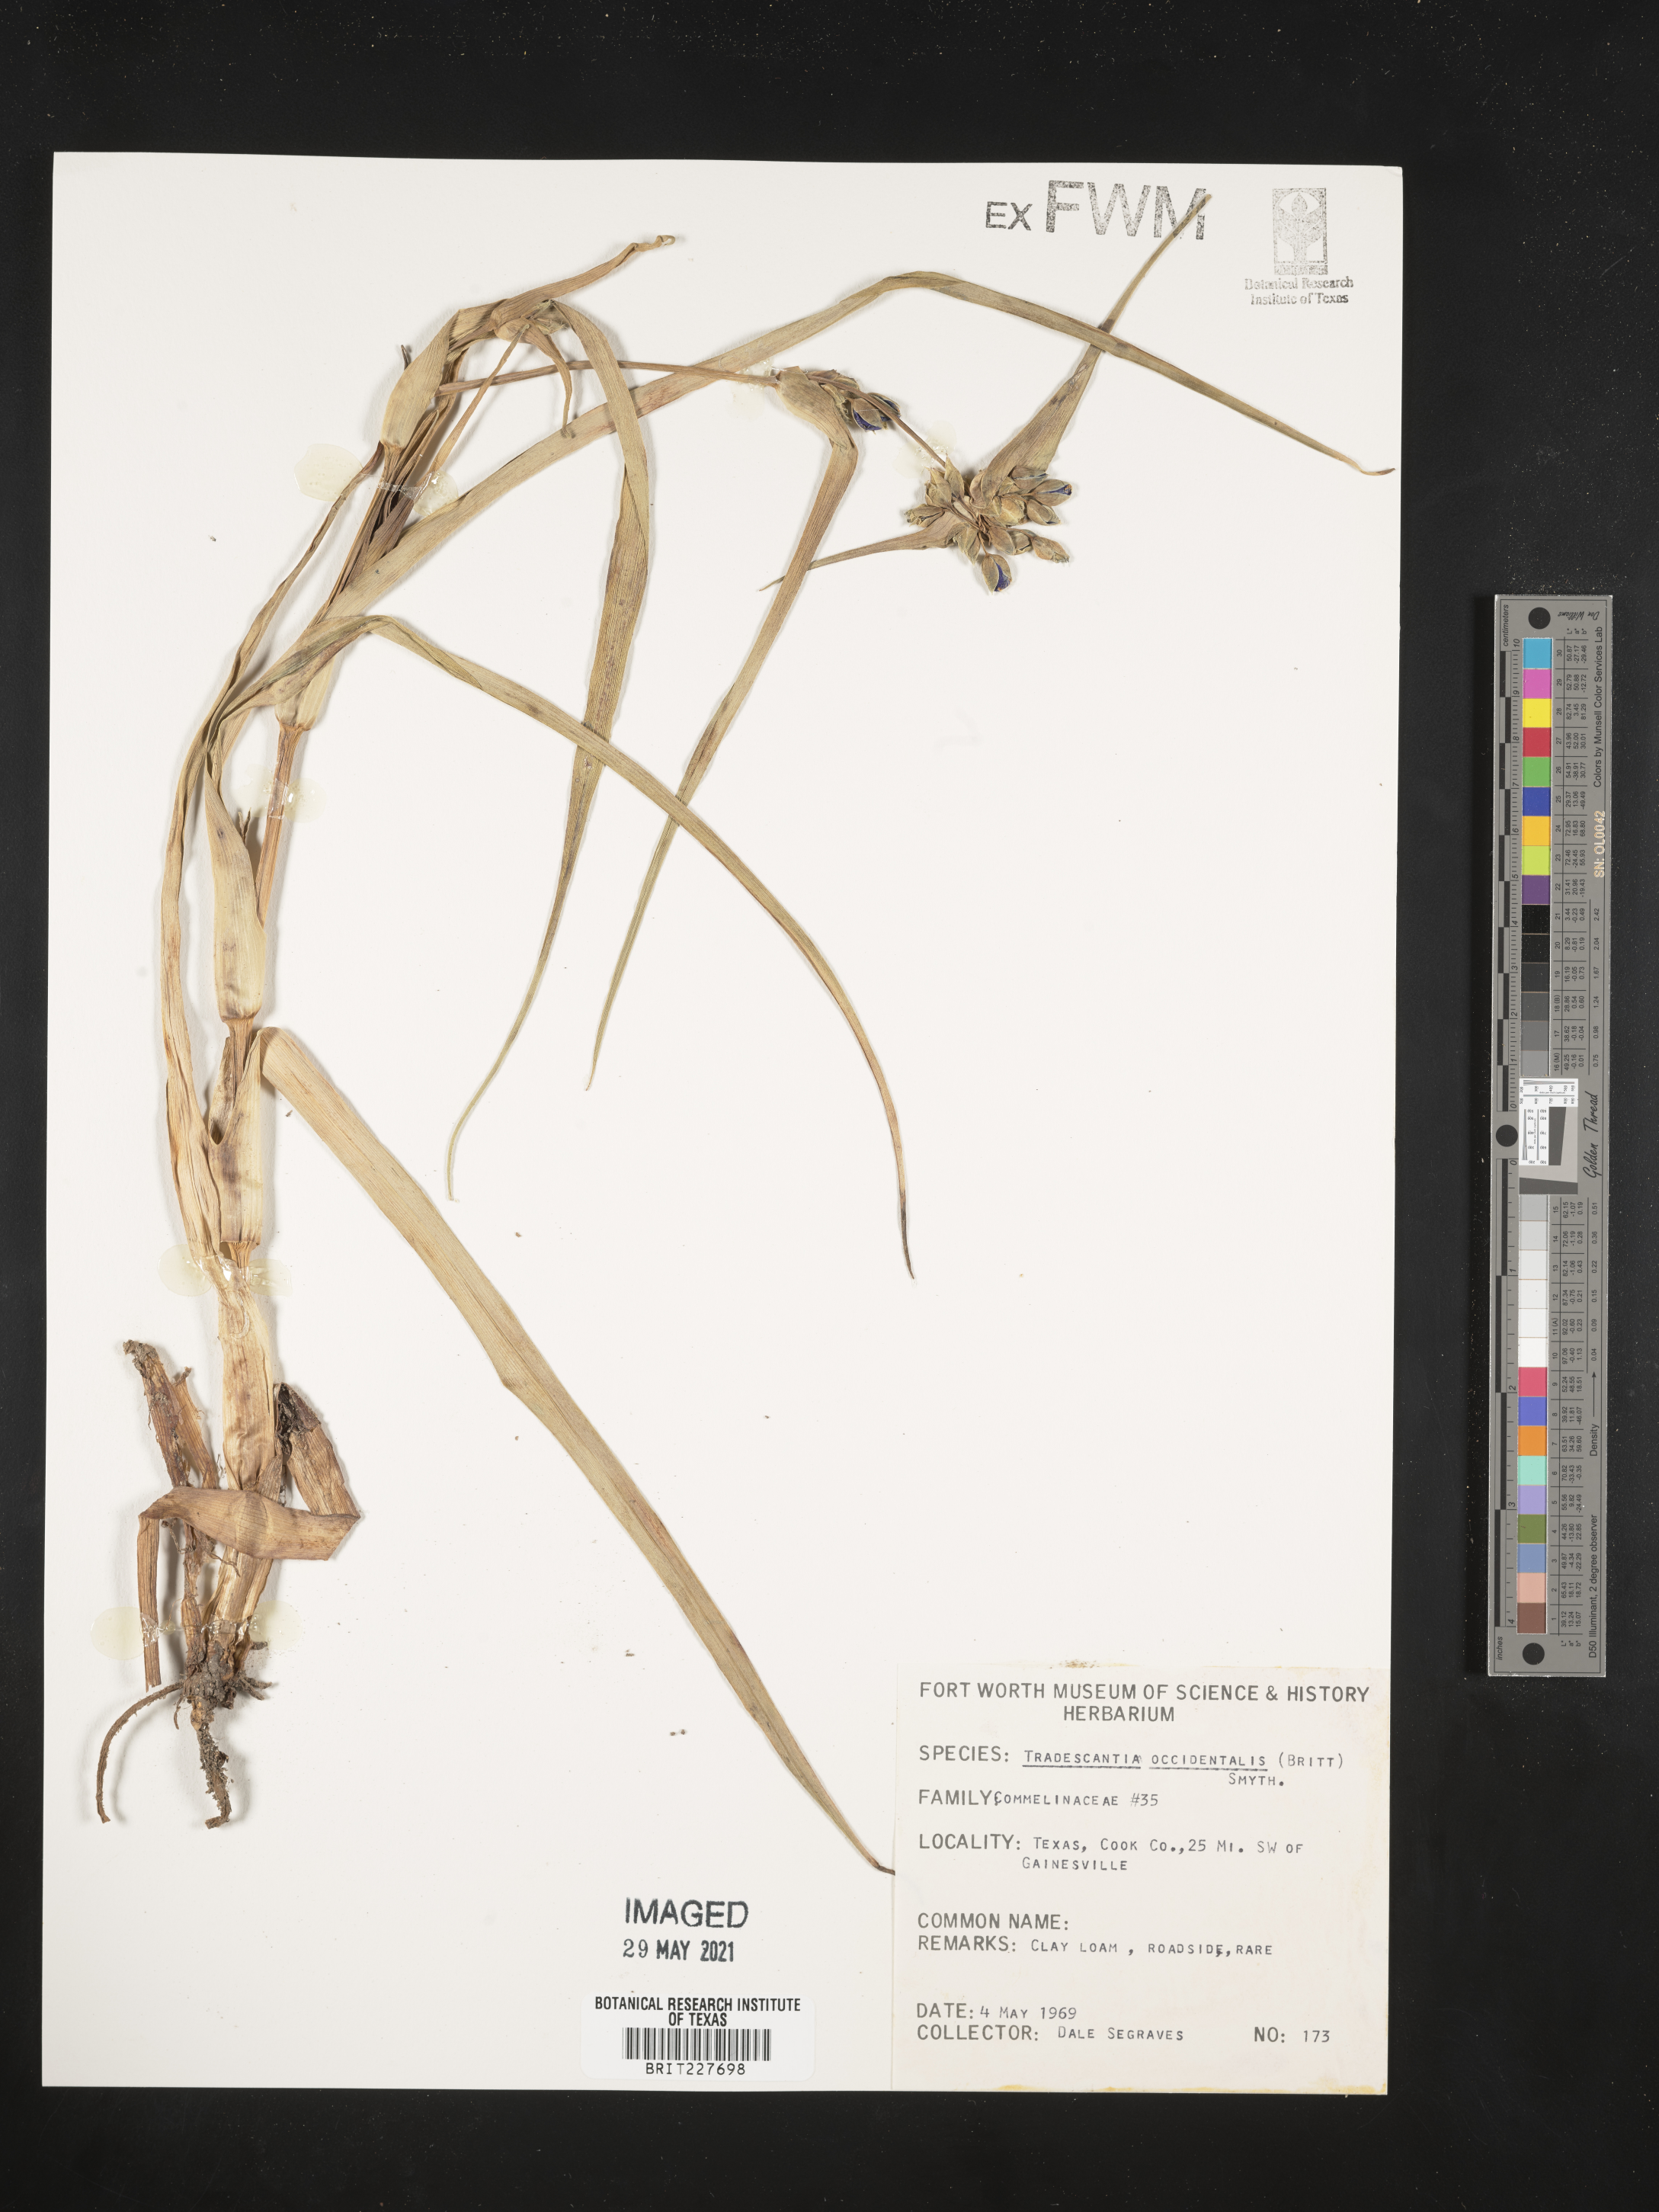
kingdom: Plantae
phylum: Tracheophyta
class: Liliopsida
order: Commelinales
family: Commelinaceae
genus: Tradescantia
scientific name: Tradescantia occidentalis
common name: Prairie spiderwort
